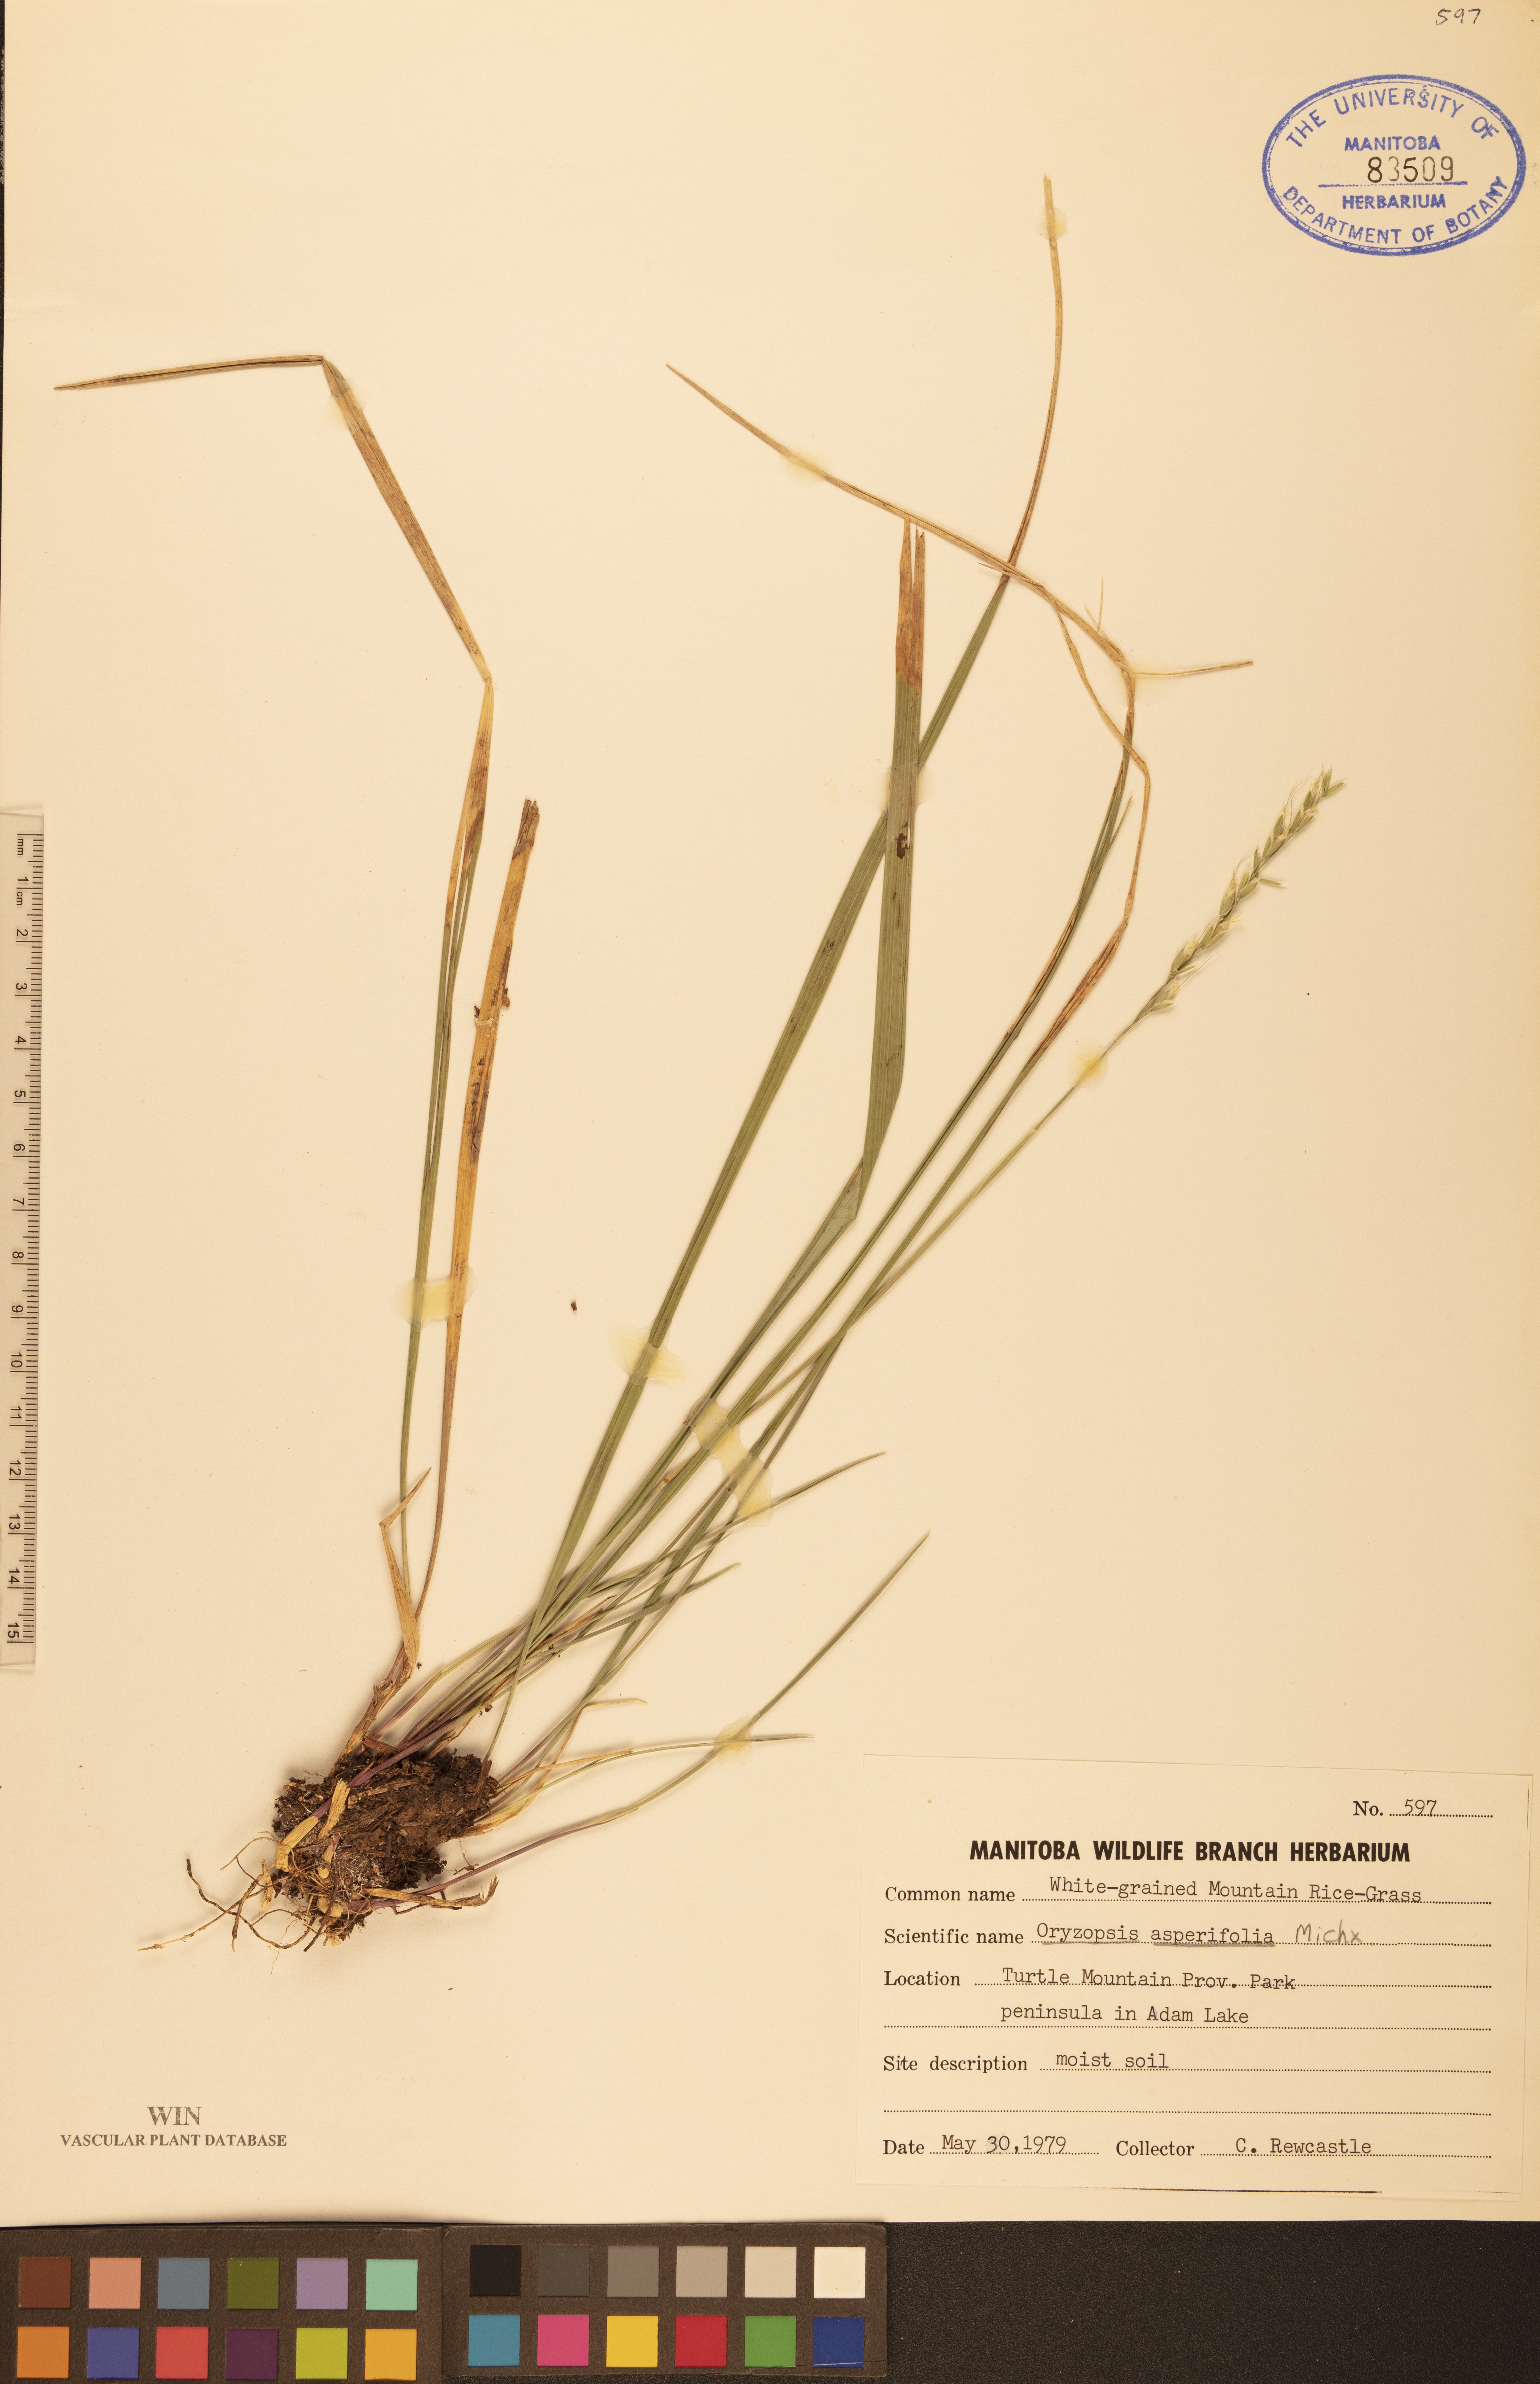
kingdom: Plantae
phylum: Tracheophyta
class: Liliopsida
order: Poales
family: Poaceae
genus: Oryzopsis
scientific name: Oryzopsis asperifolia
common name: Rough-leaved mountain rice
